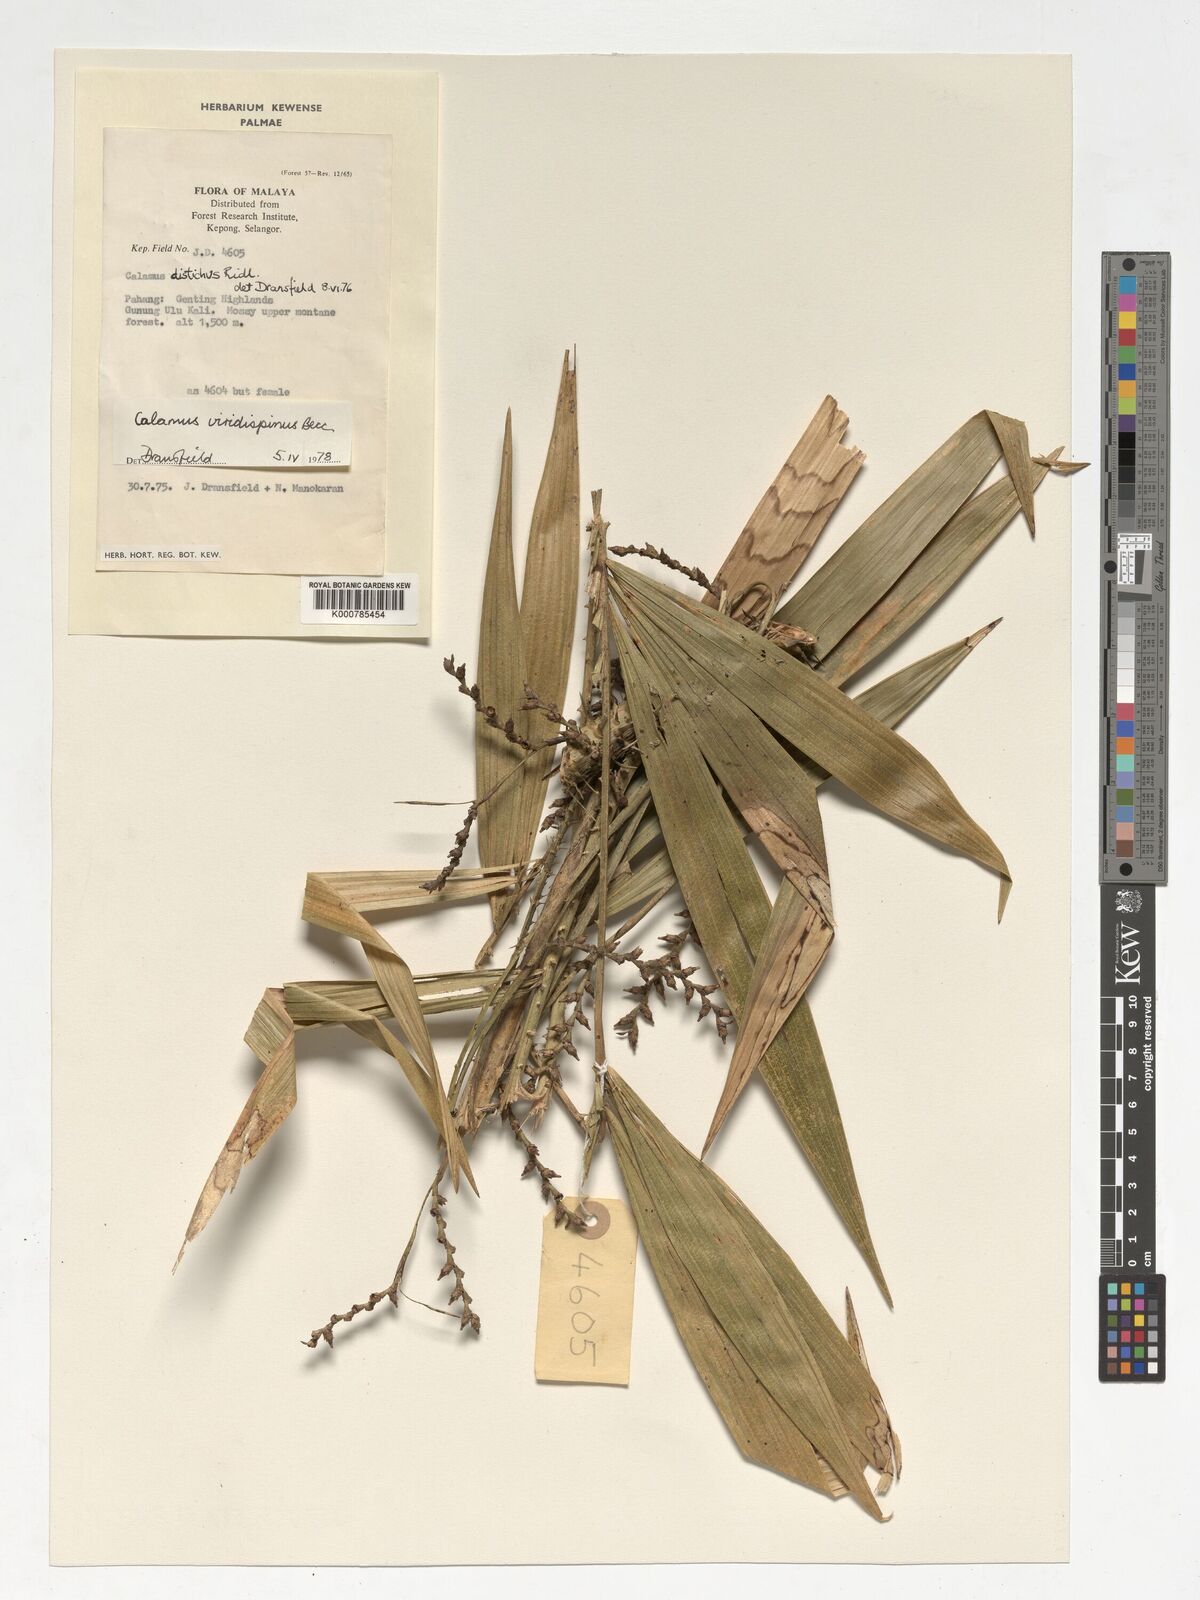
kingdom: Plantae
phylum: Tracheophyta
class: Liliopsida
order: Arecales
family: Arecaceae
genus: Calamus
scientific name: Calamus helferianus
